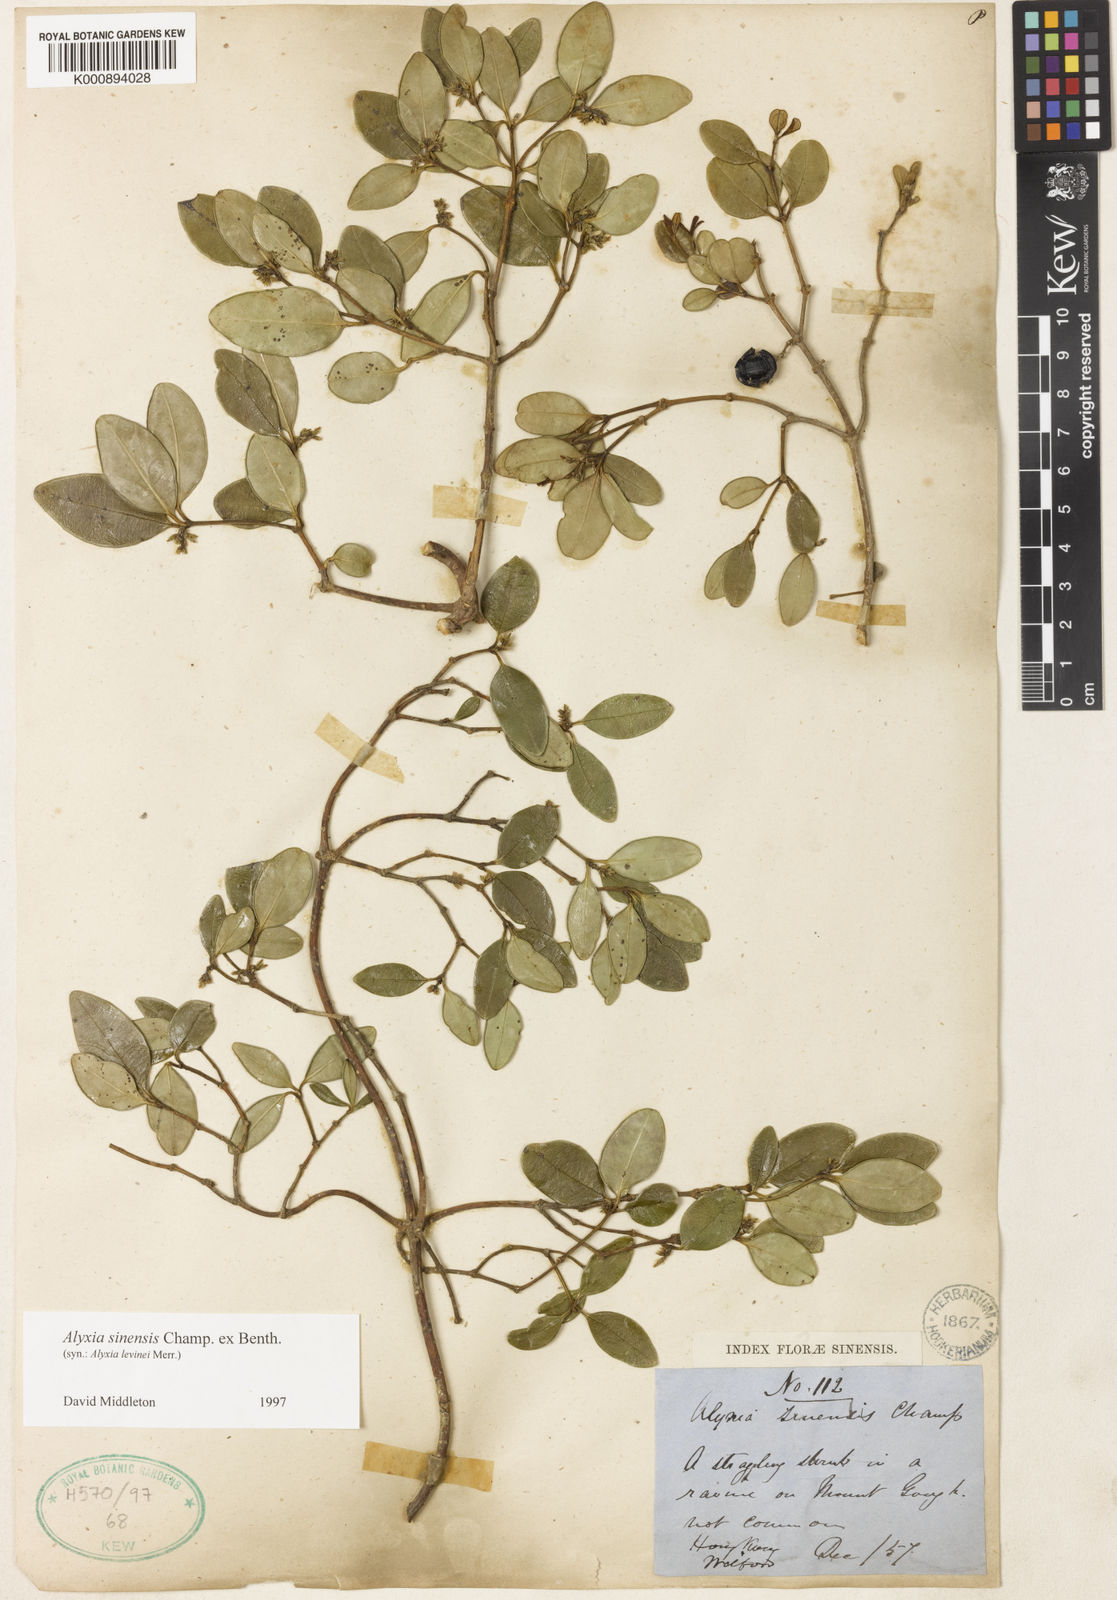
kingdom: Plantae
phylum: Tracheophyta
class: Magnoliopsida
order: Gentianales
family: Apocynaceae
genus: Alyxia
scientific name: Alyxia sinensis
